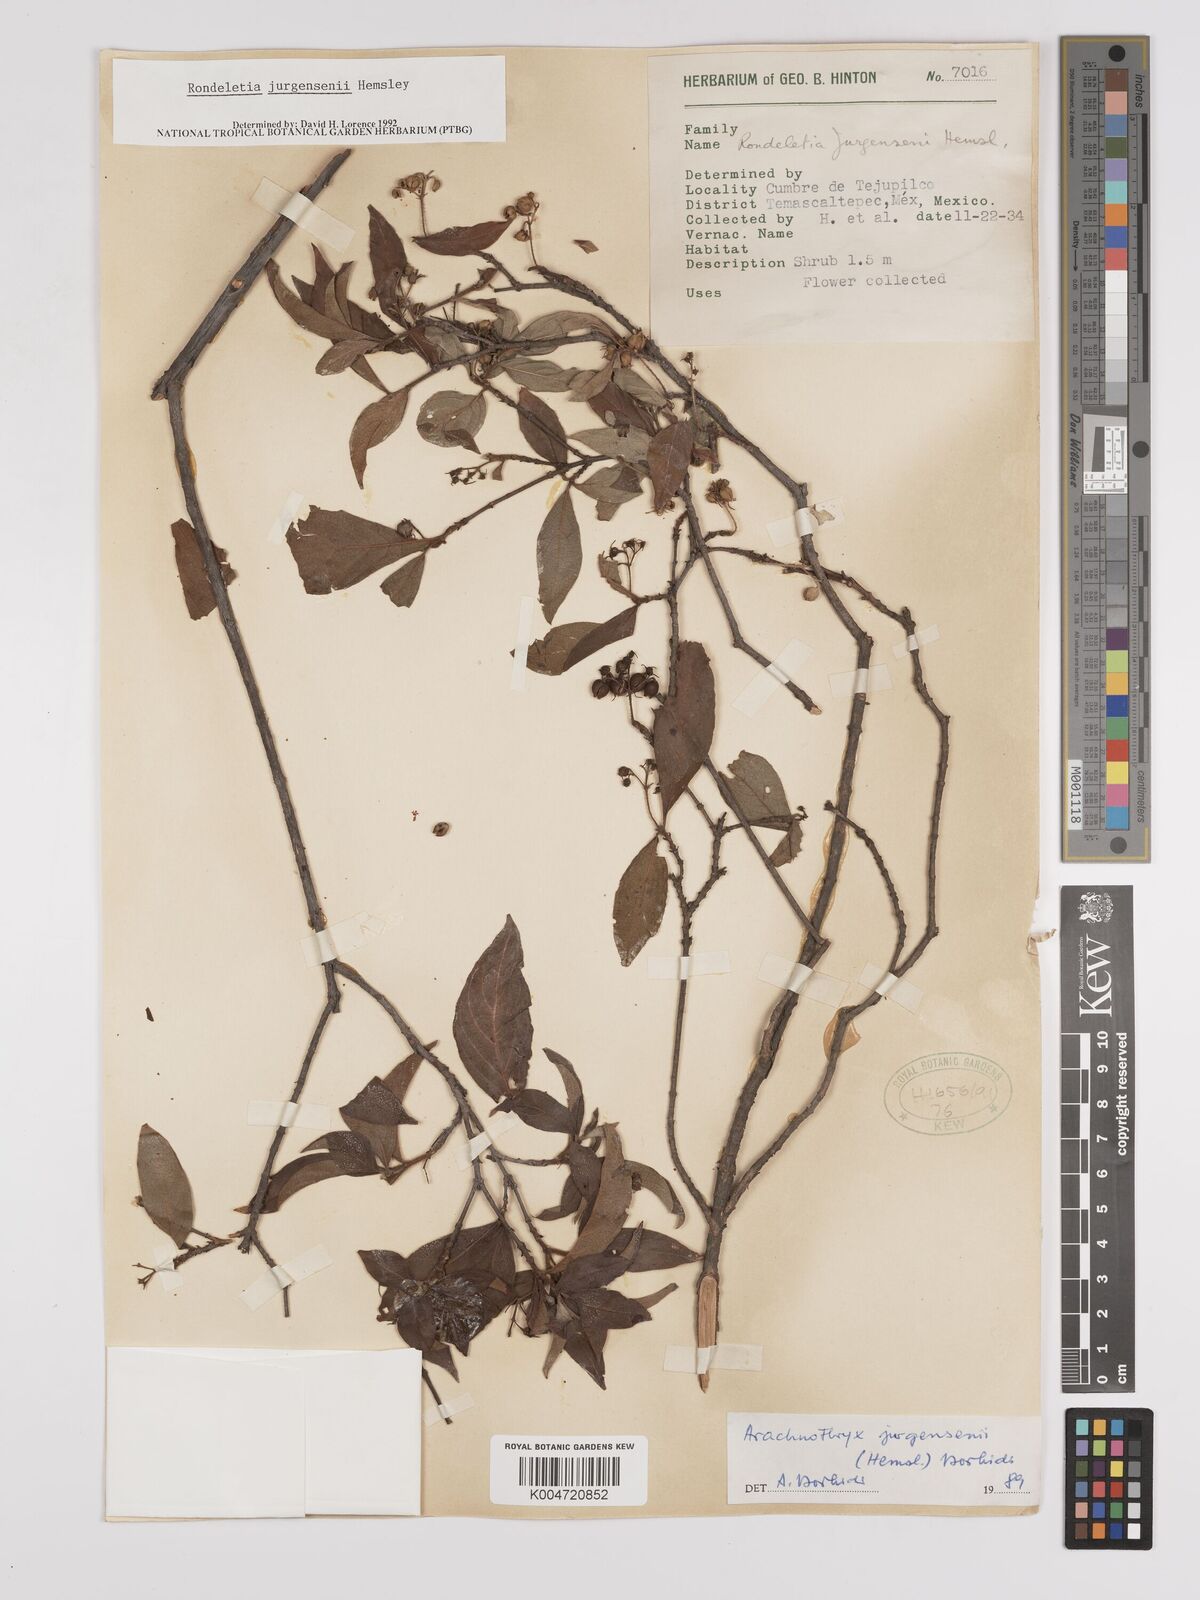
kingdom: Plantae
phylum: Tracheophyta
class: Magnoliopsida
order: Gentianales
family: Rubiaceae
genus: Arachnothryx
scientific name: Arachnothryx jurgensenii
